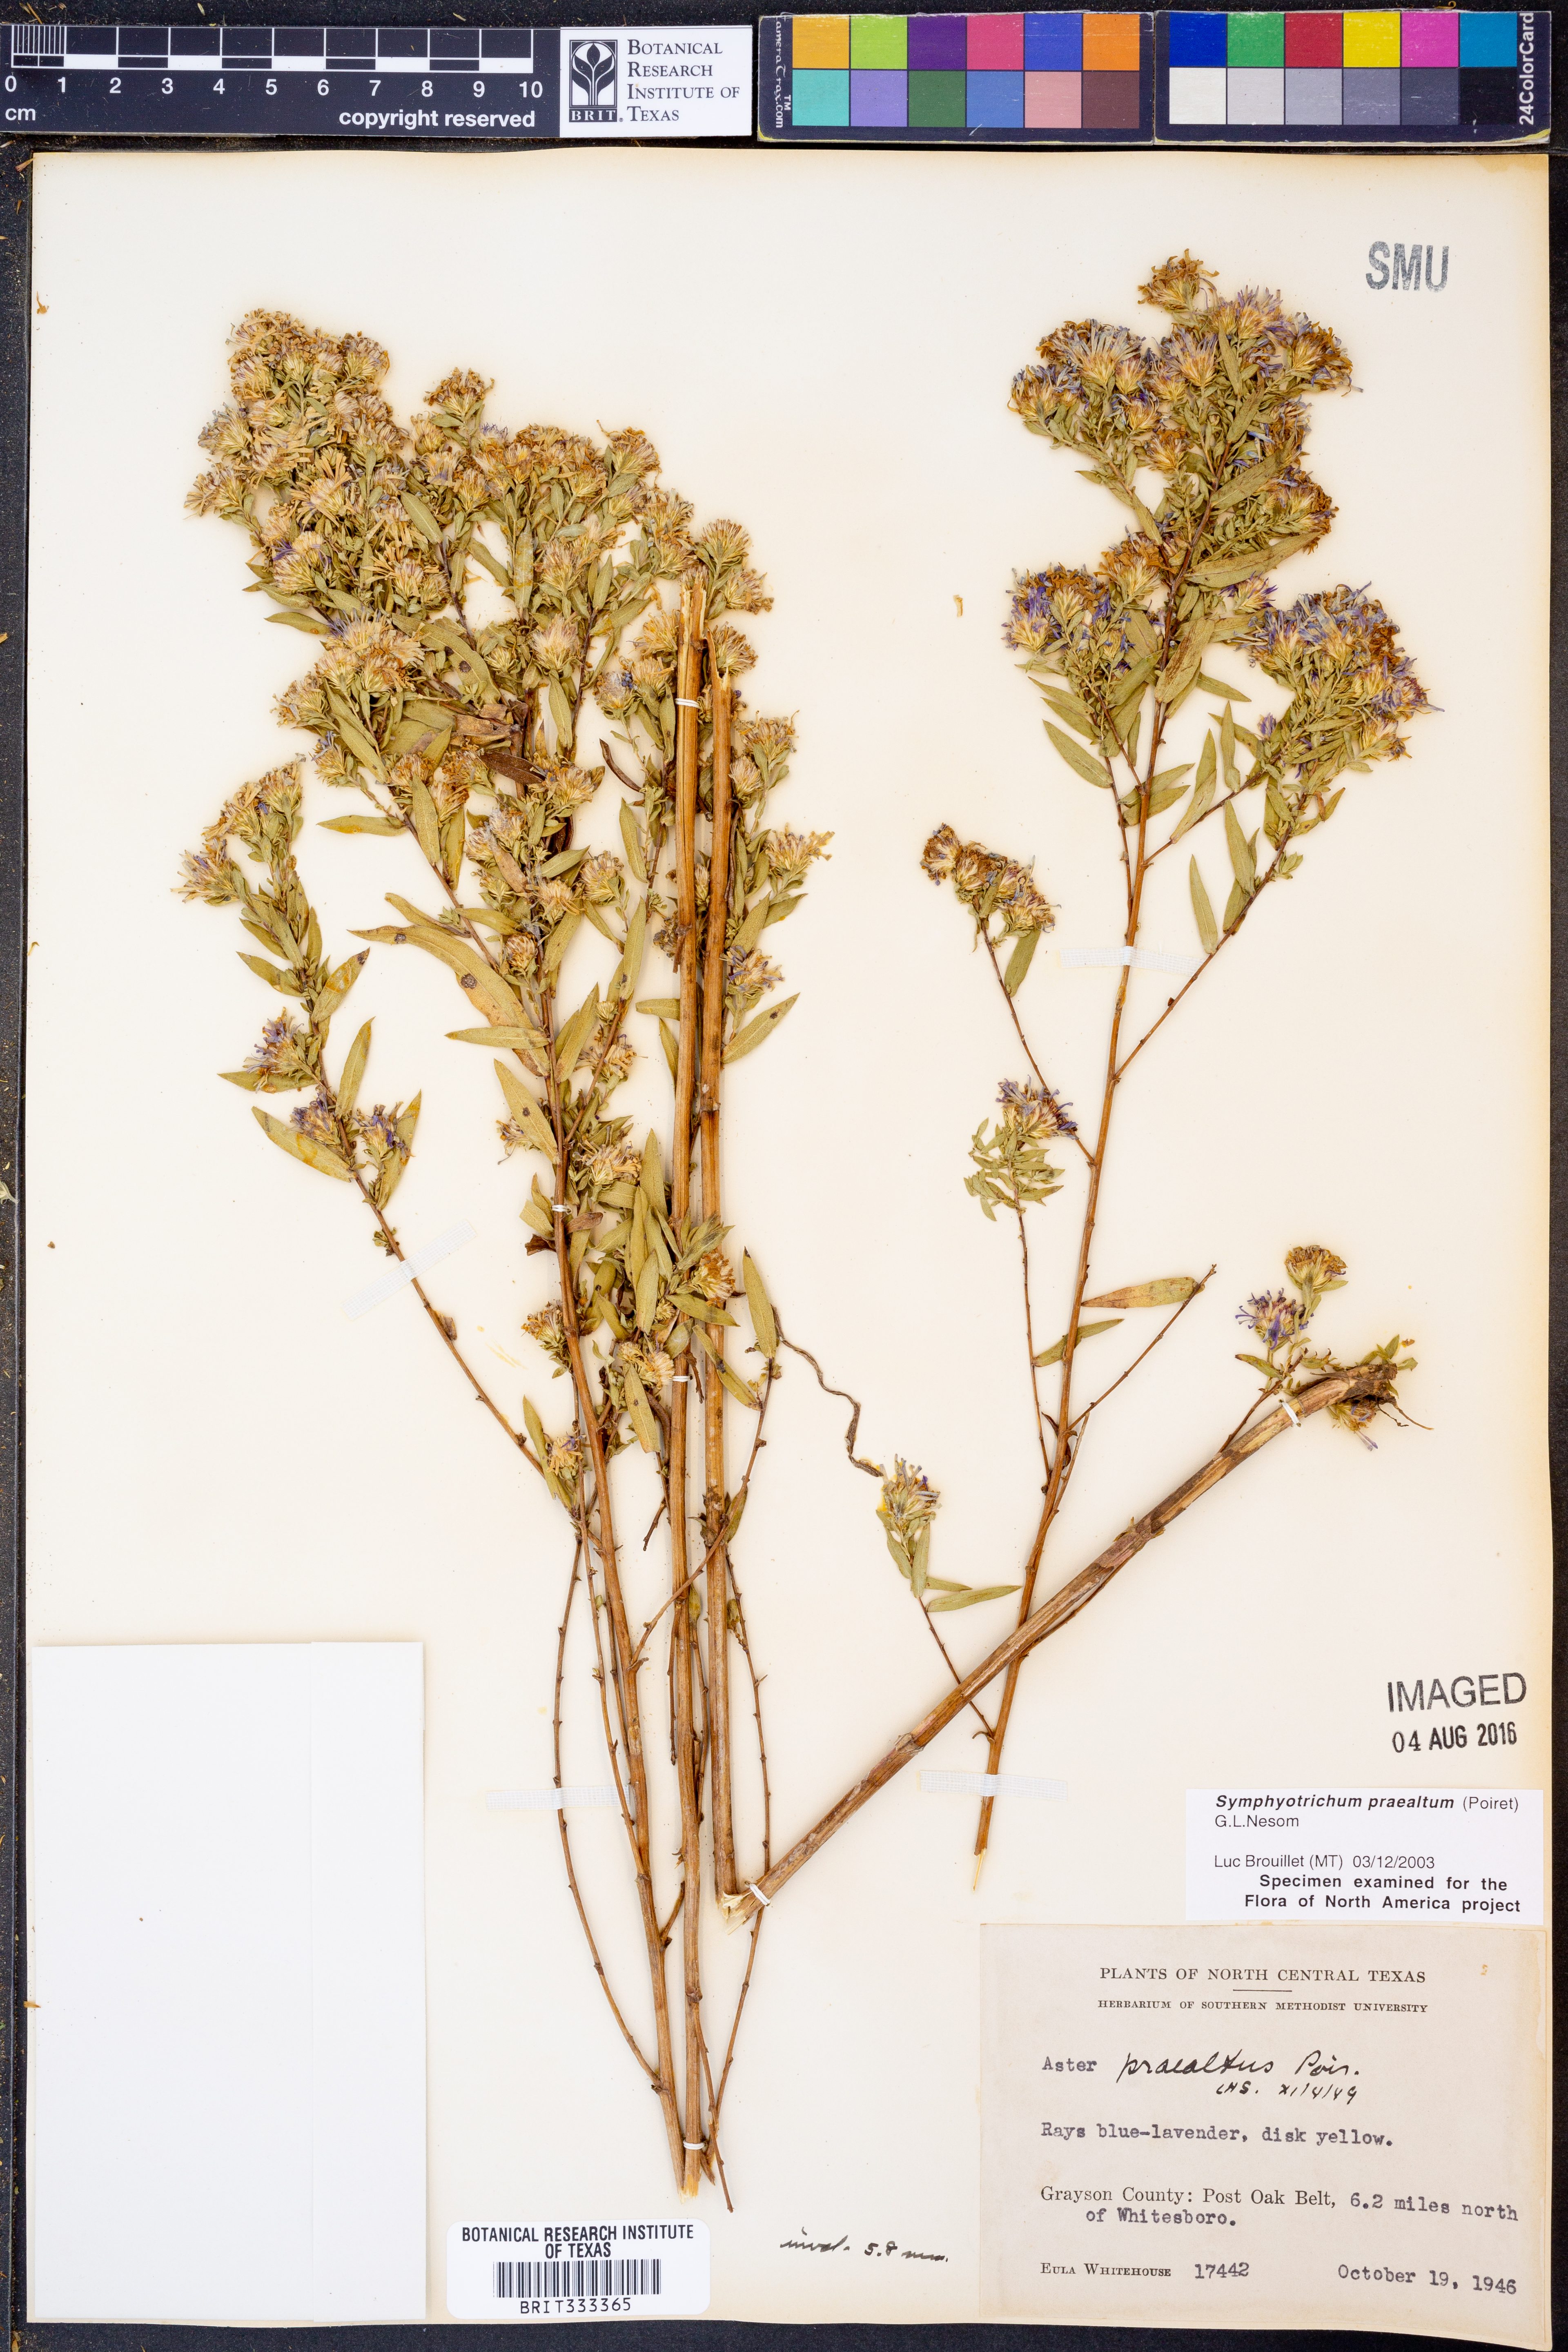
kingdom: Plantae
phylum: Tracheophyta
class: Magnoliopsida
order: Asterales
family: Asteraceae
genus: Symphyotrichum
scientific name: Symphyotrichum praealtum
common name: Willow aster
